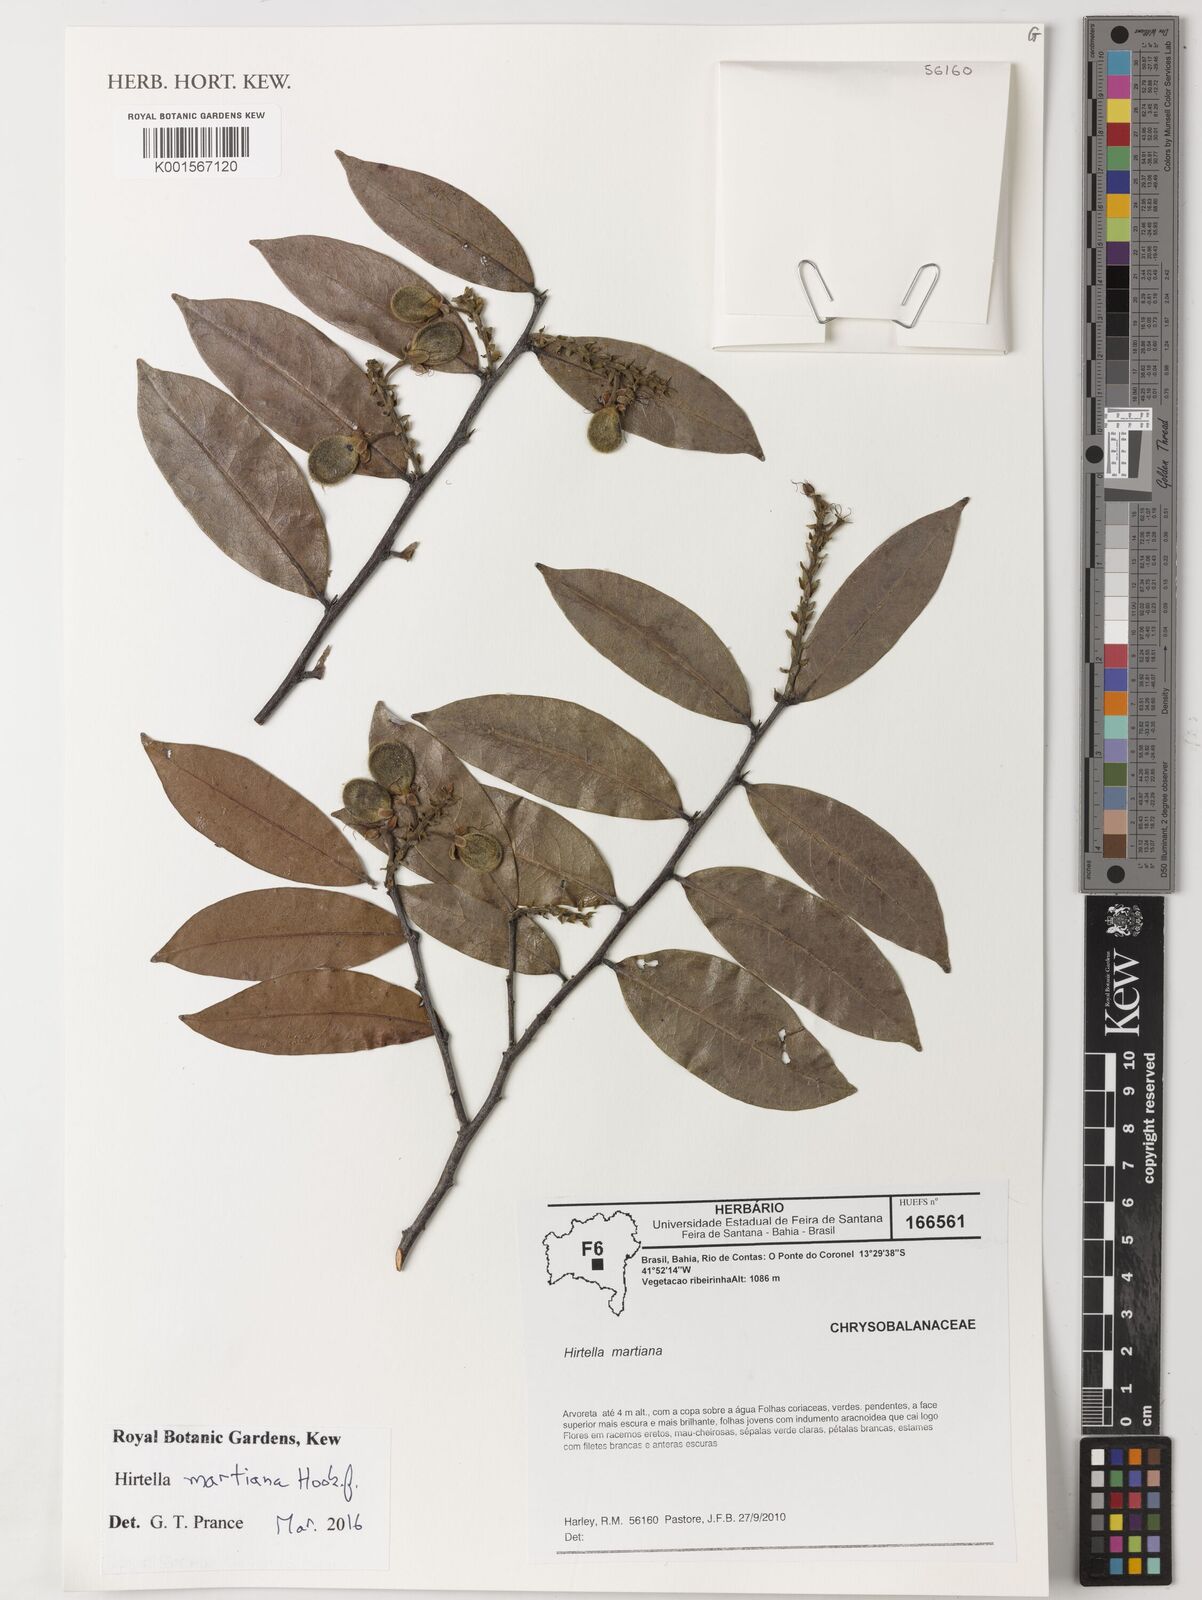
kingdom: Plantae
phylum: Tracheophyta
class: Magnoliopsida
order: Malpighiales
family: Chrysobalanaceae
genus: Hirtella
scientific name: Hirtella martiana
